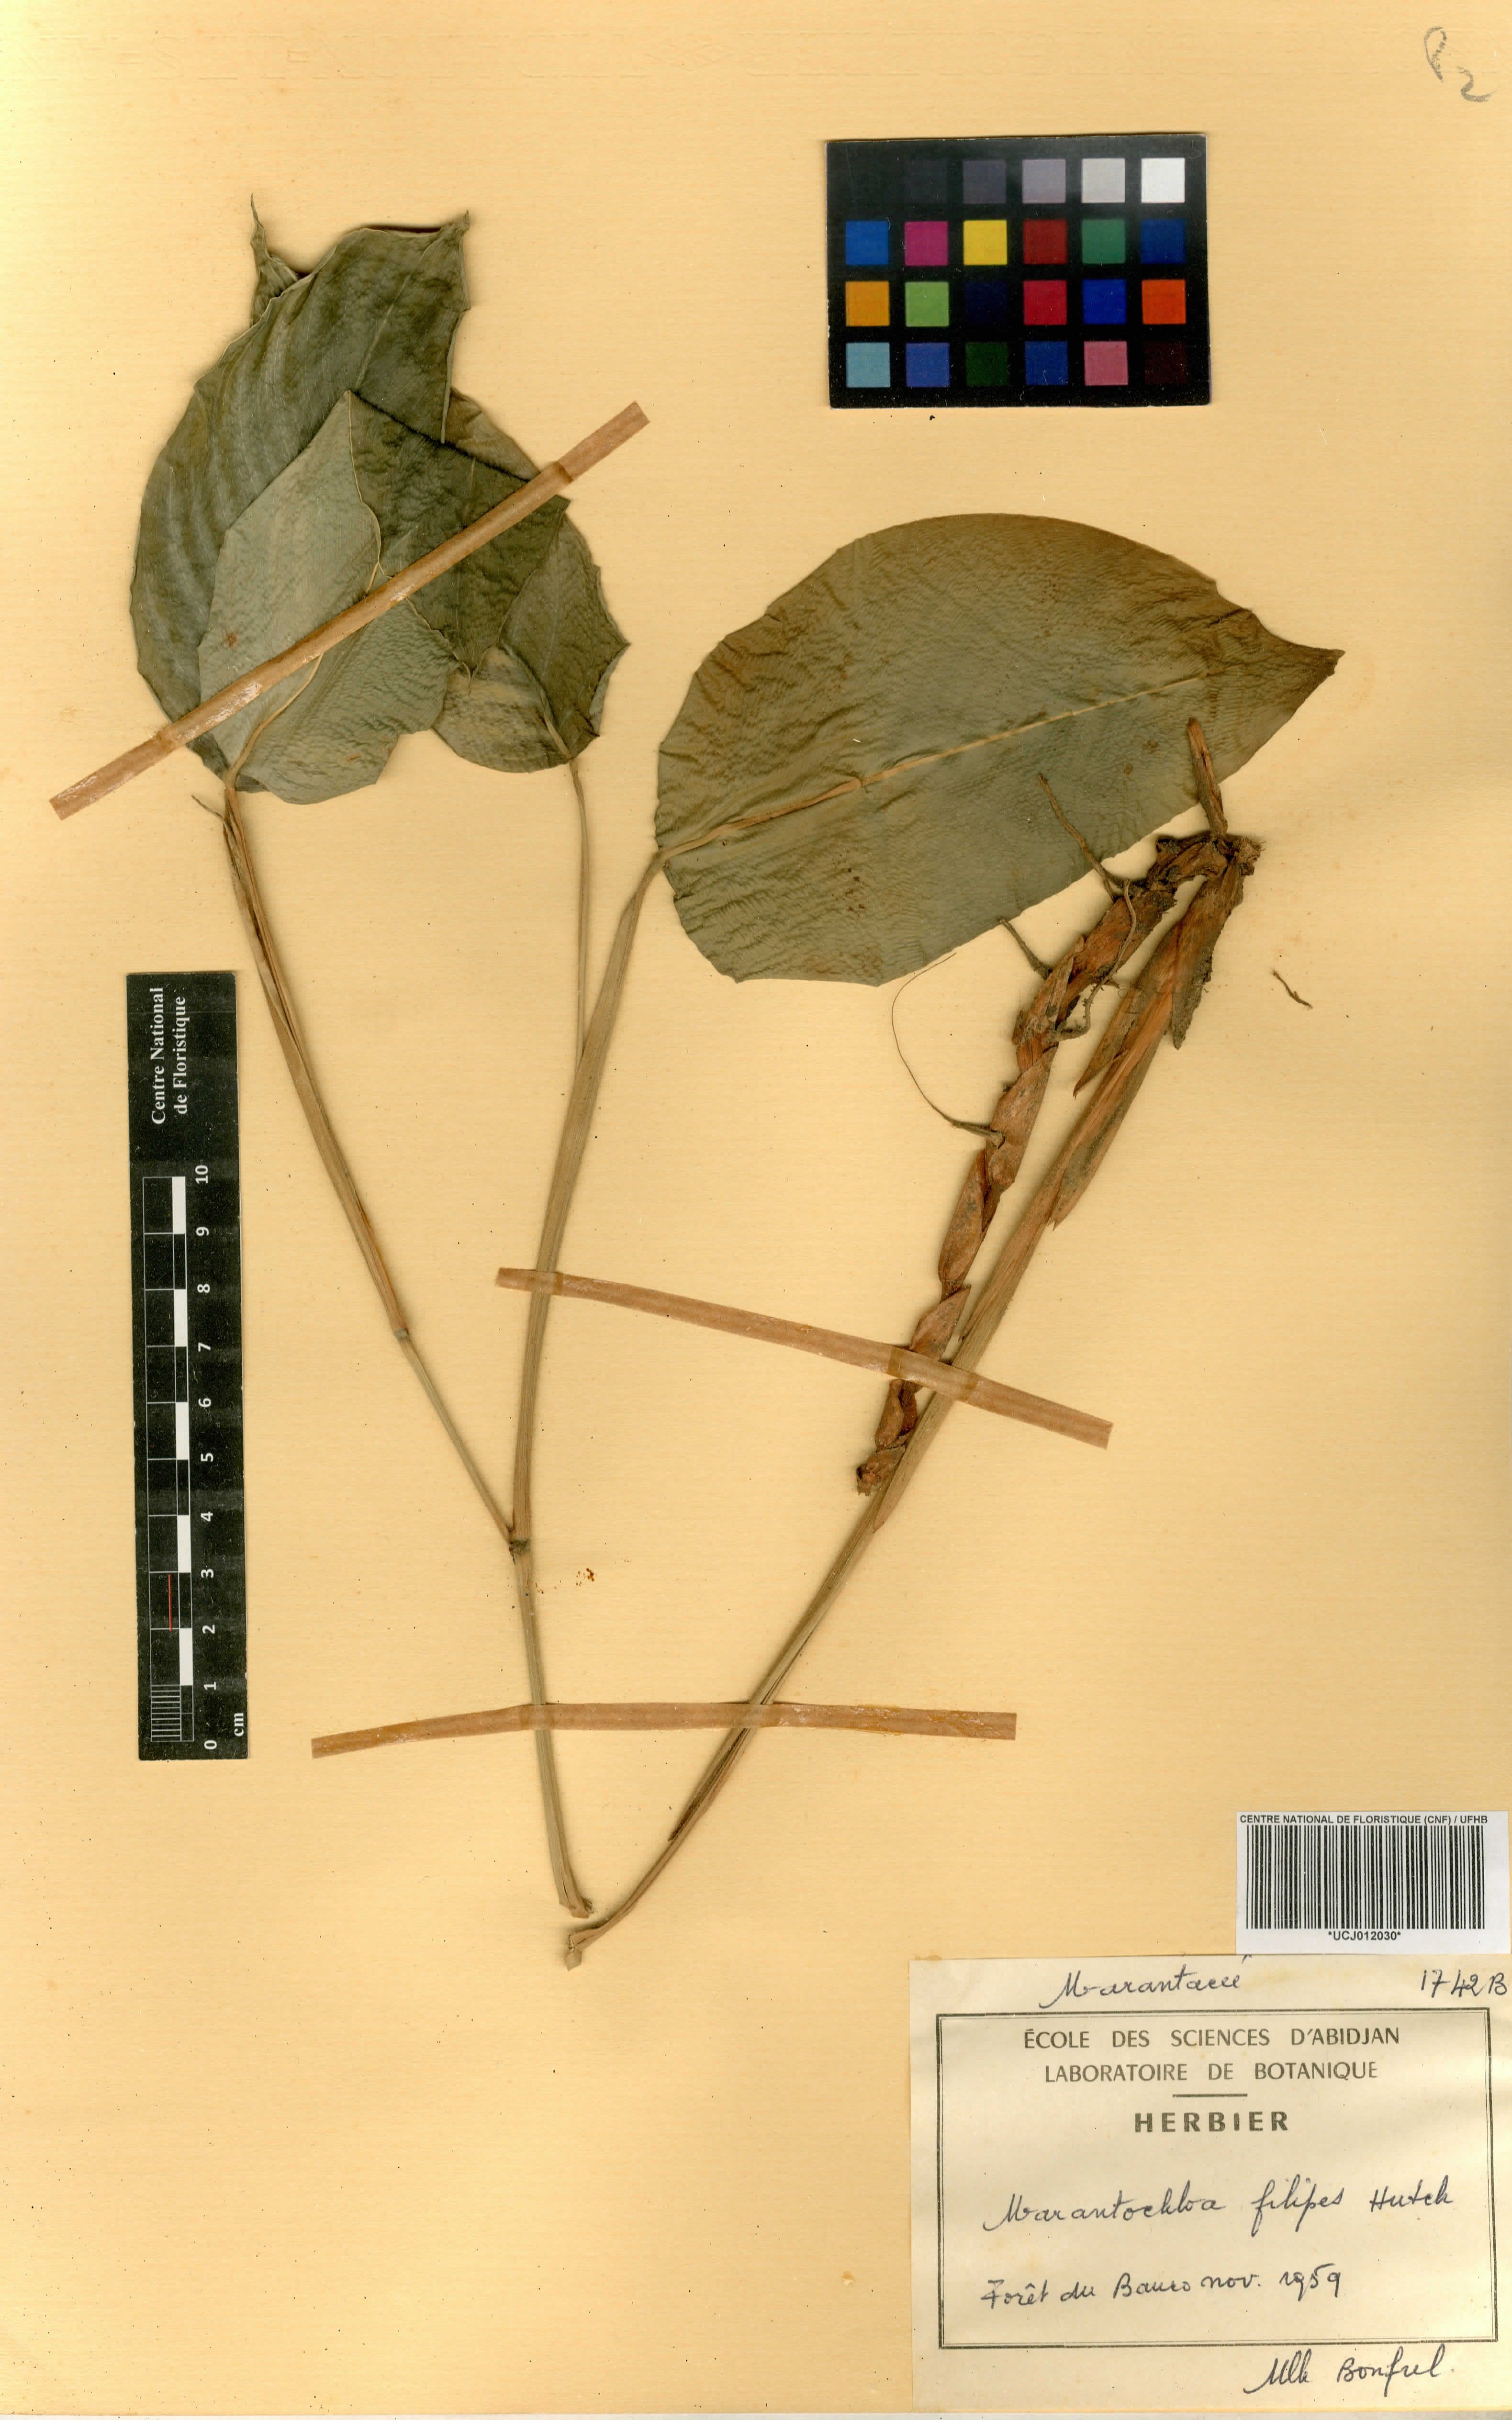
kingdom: Plantae
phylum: Tracheophyta
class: Liliopsida
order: Zingiberales
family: Marantaceae
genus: Marantochloa
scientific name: Marantochloa filipes
